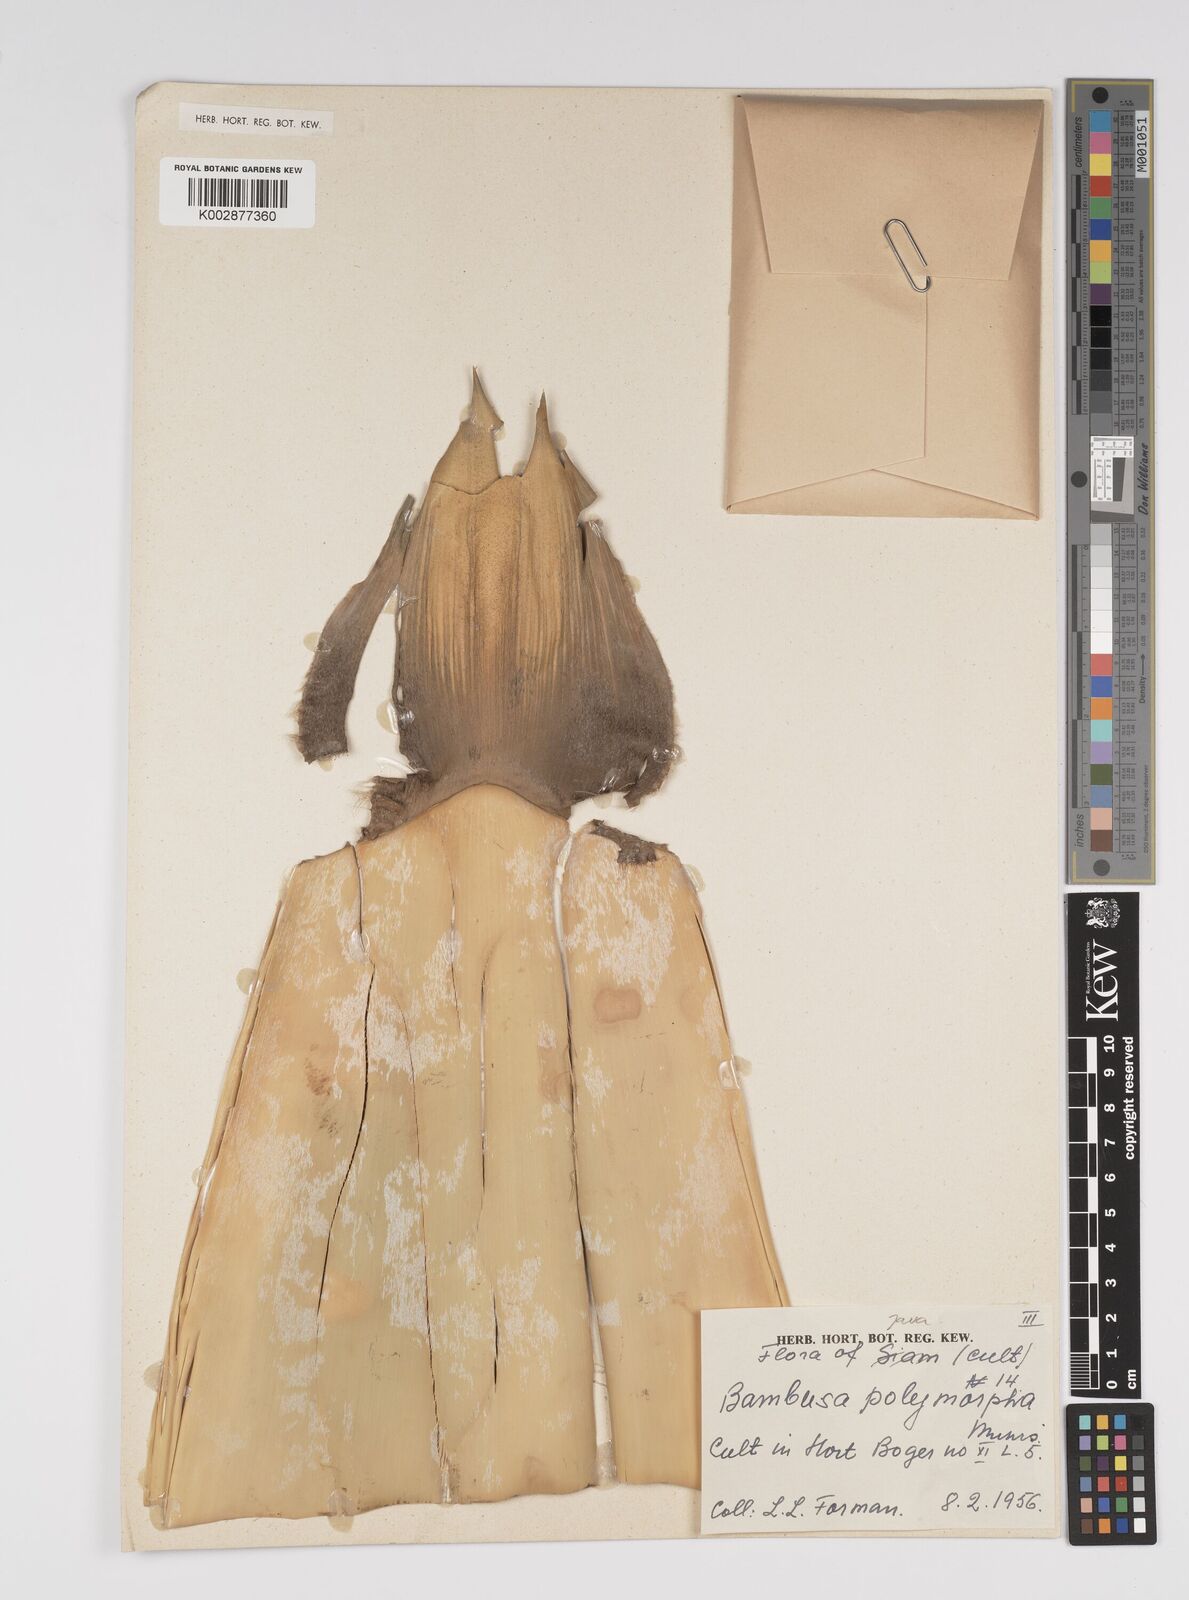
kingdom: Plantae
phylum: Tracheophyta
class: Liliopsida
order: Poales
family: Poaceae
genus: Bambusa
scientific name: Bambusa
